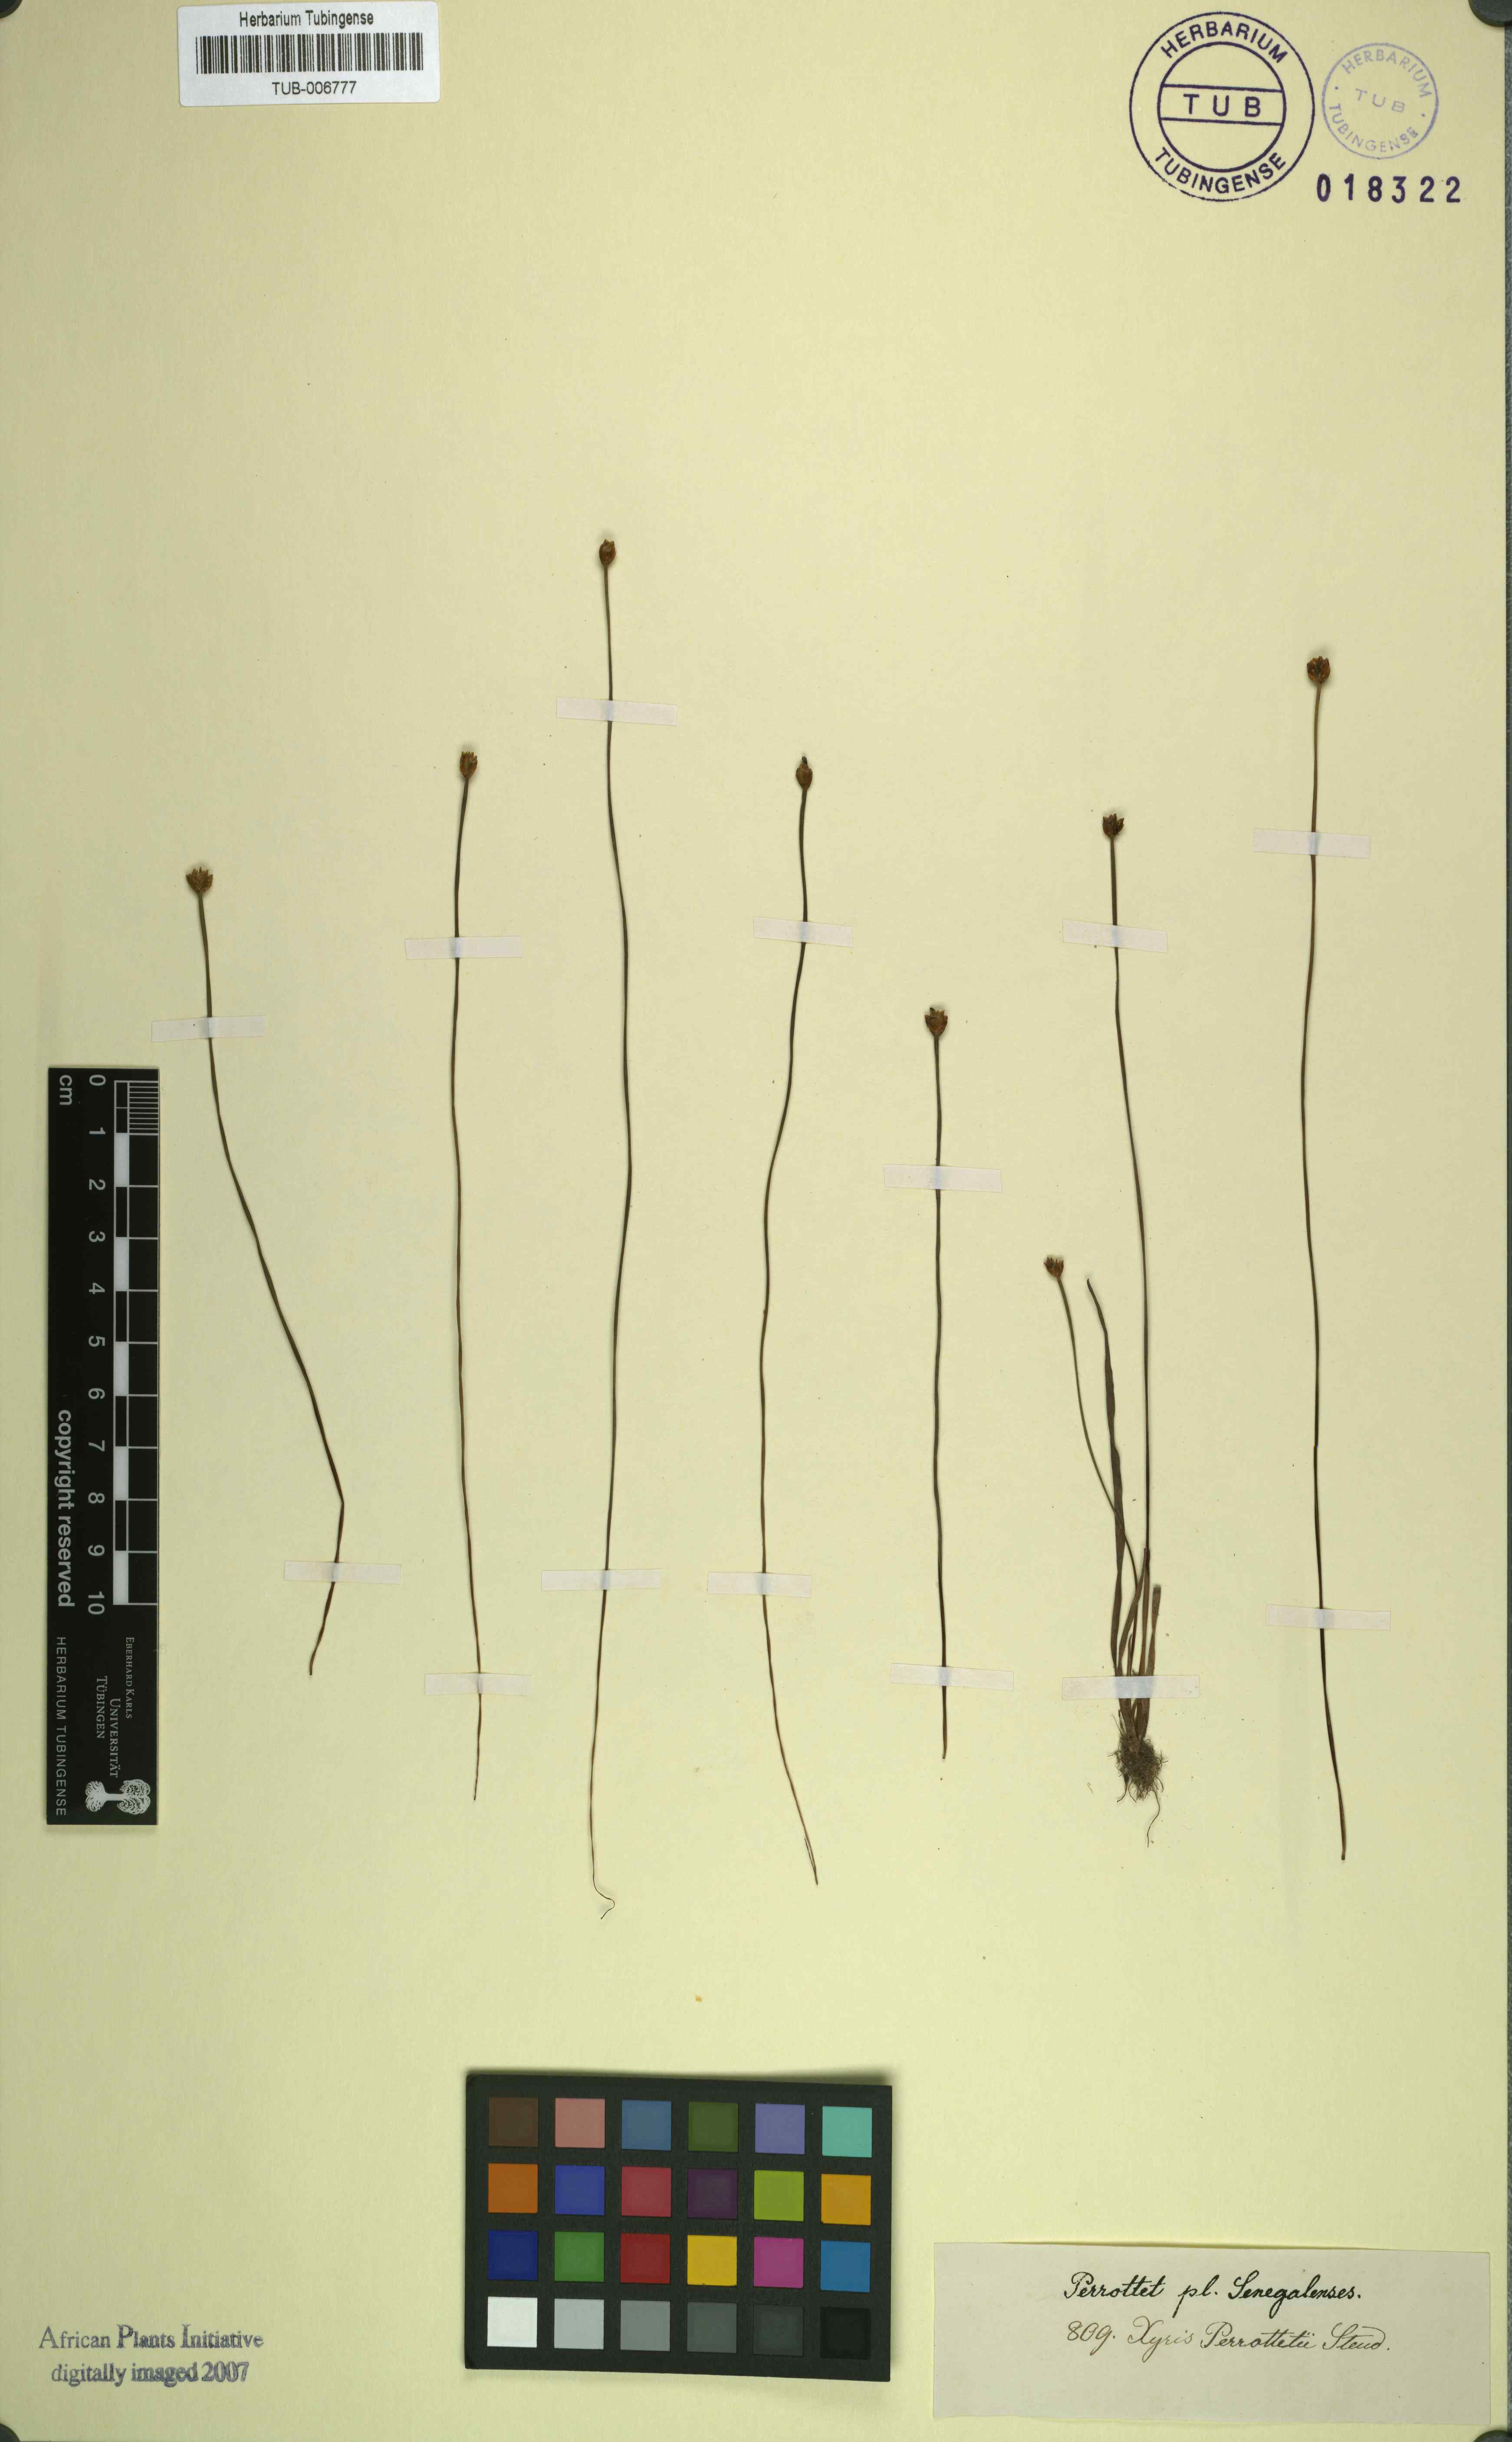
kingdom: Plantae
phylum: Tracheophyta
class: Liliopsida
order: Poales
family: Xyridaceae
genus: Xyris
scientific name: Xyris anceps
